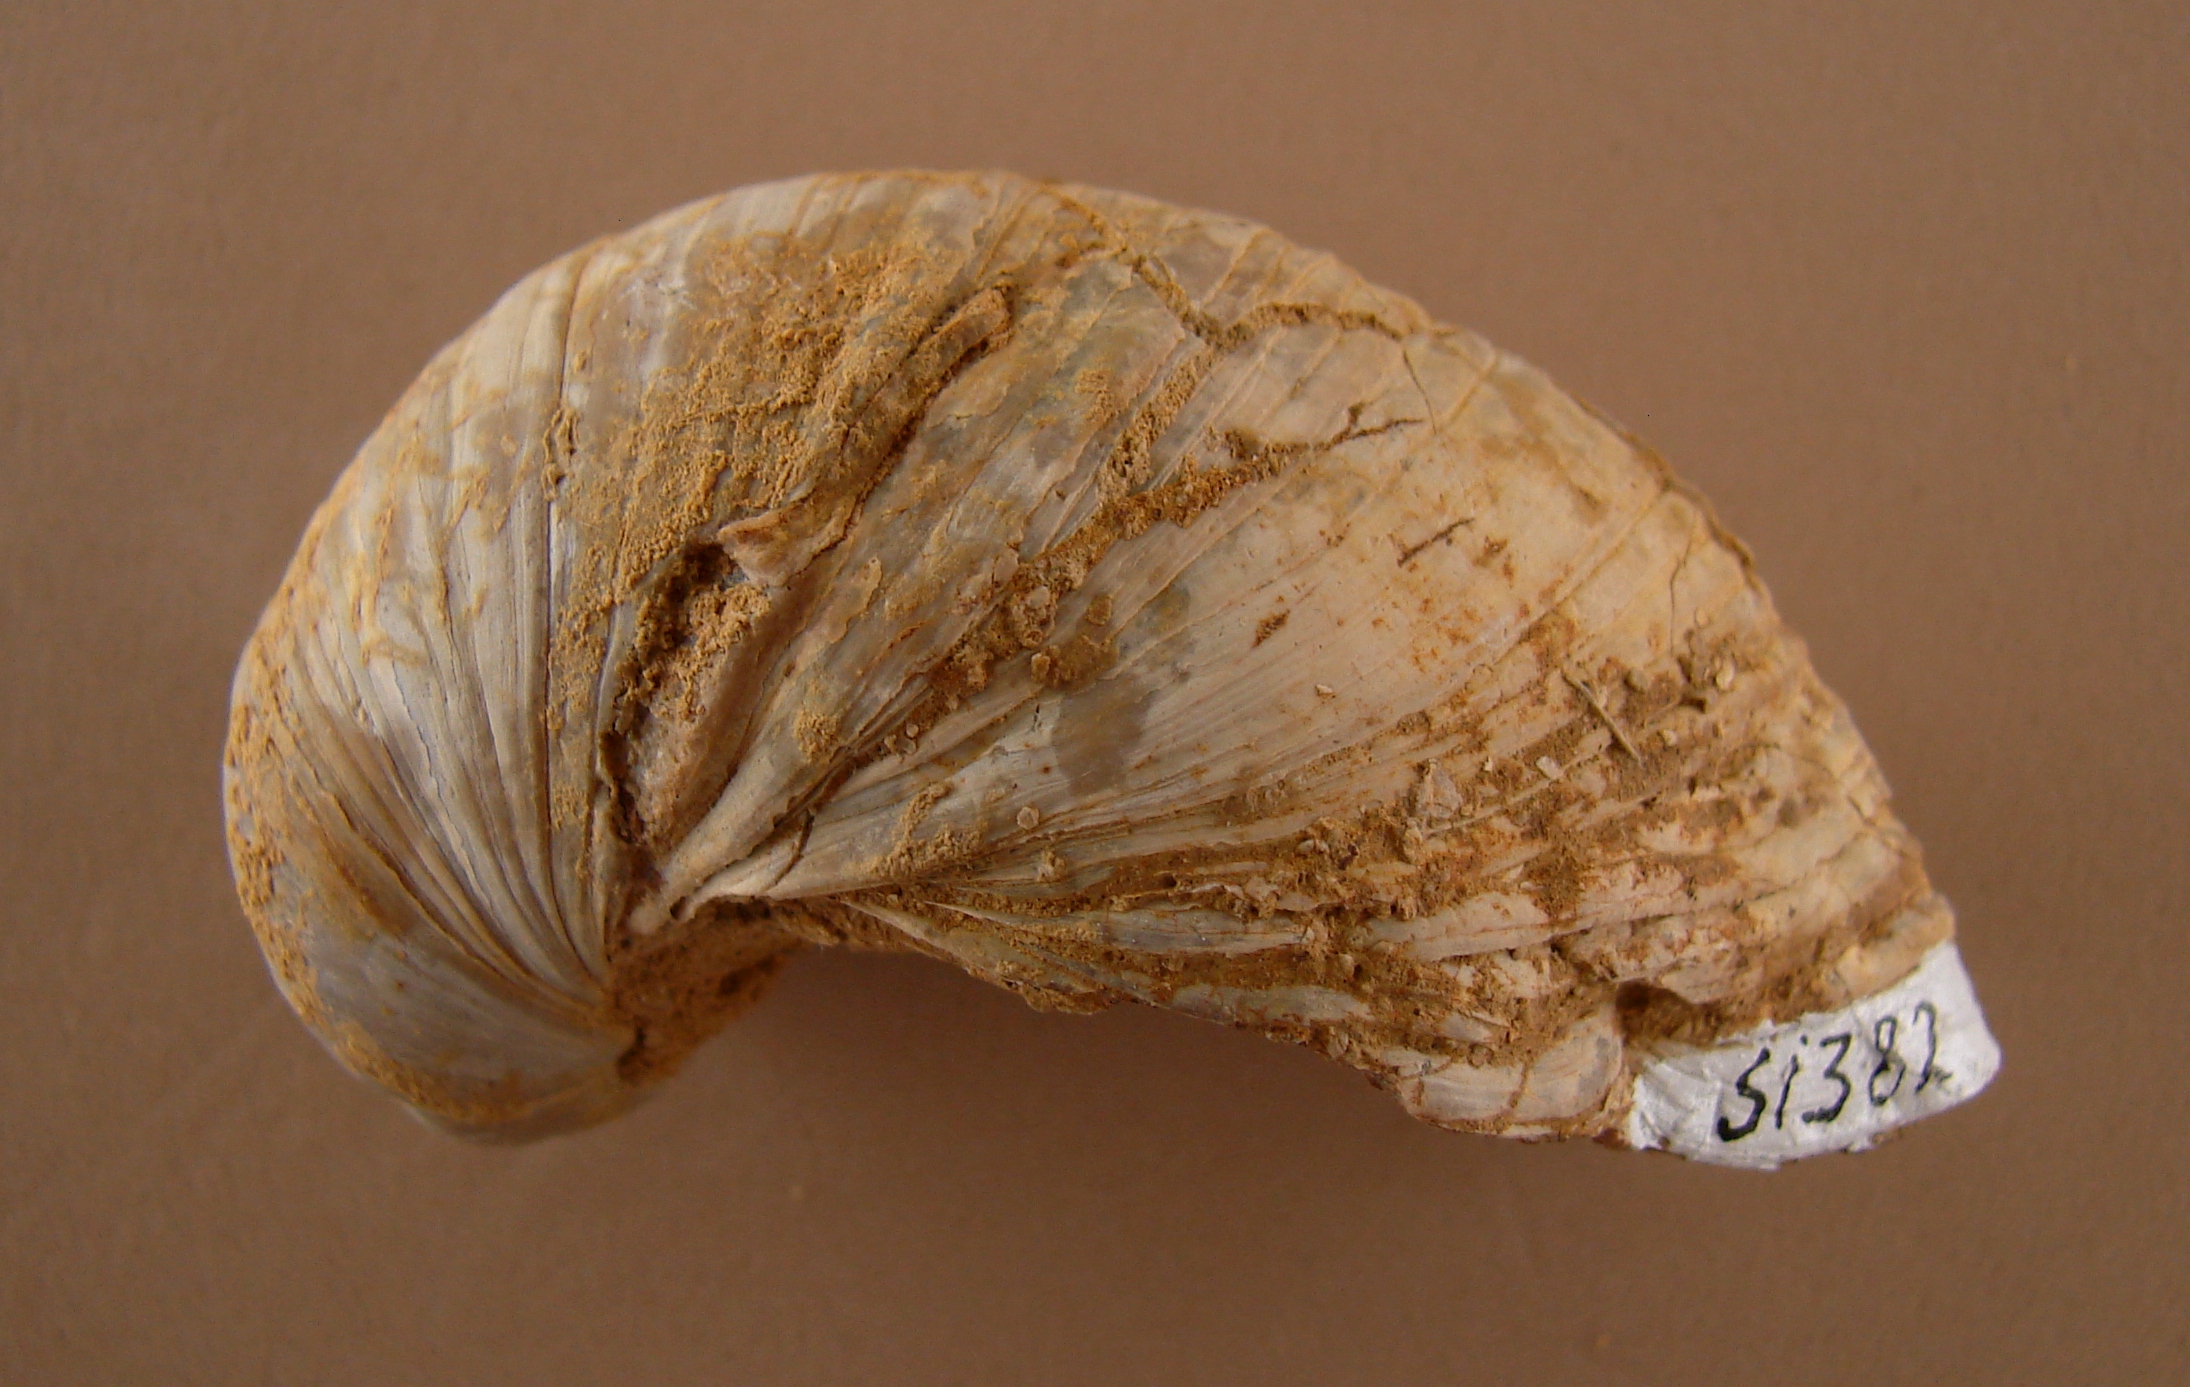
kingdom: Animalia
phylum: Mollusca
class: Bivalvia
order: Ostreida
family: Gryphaeidae
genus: Gryphaea
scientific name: Gryphaea
